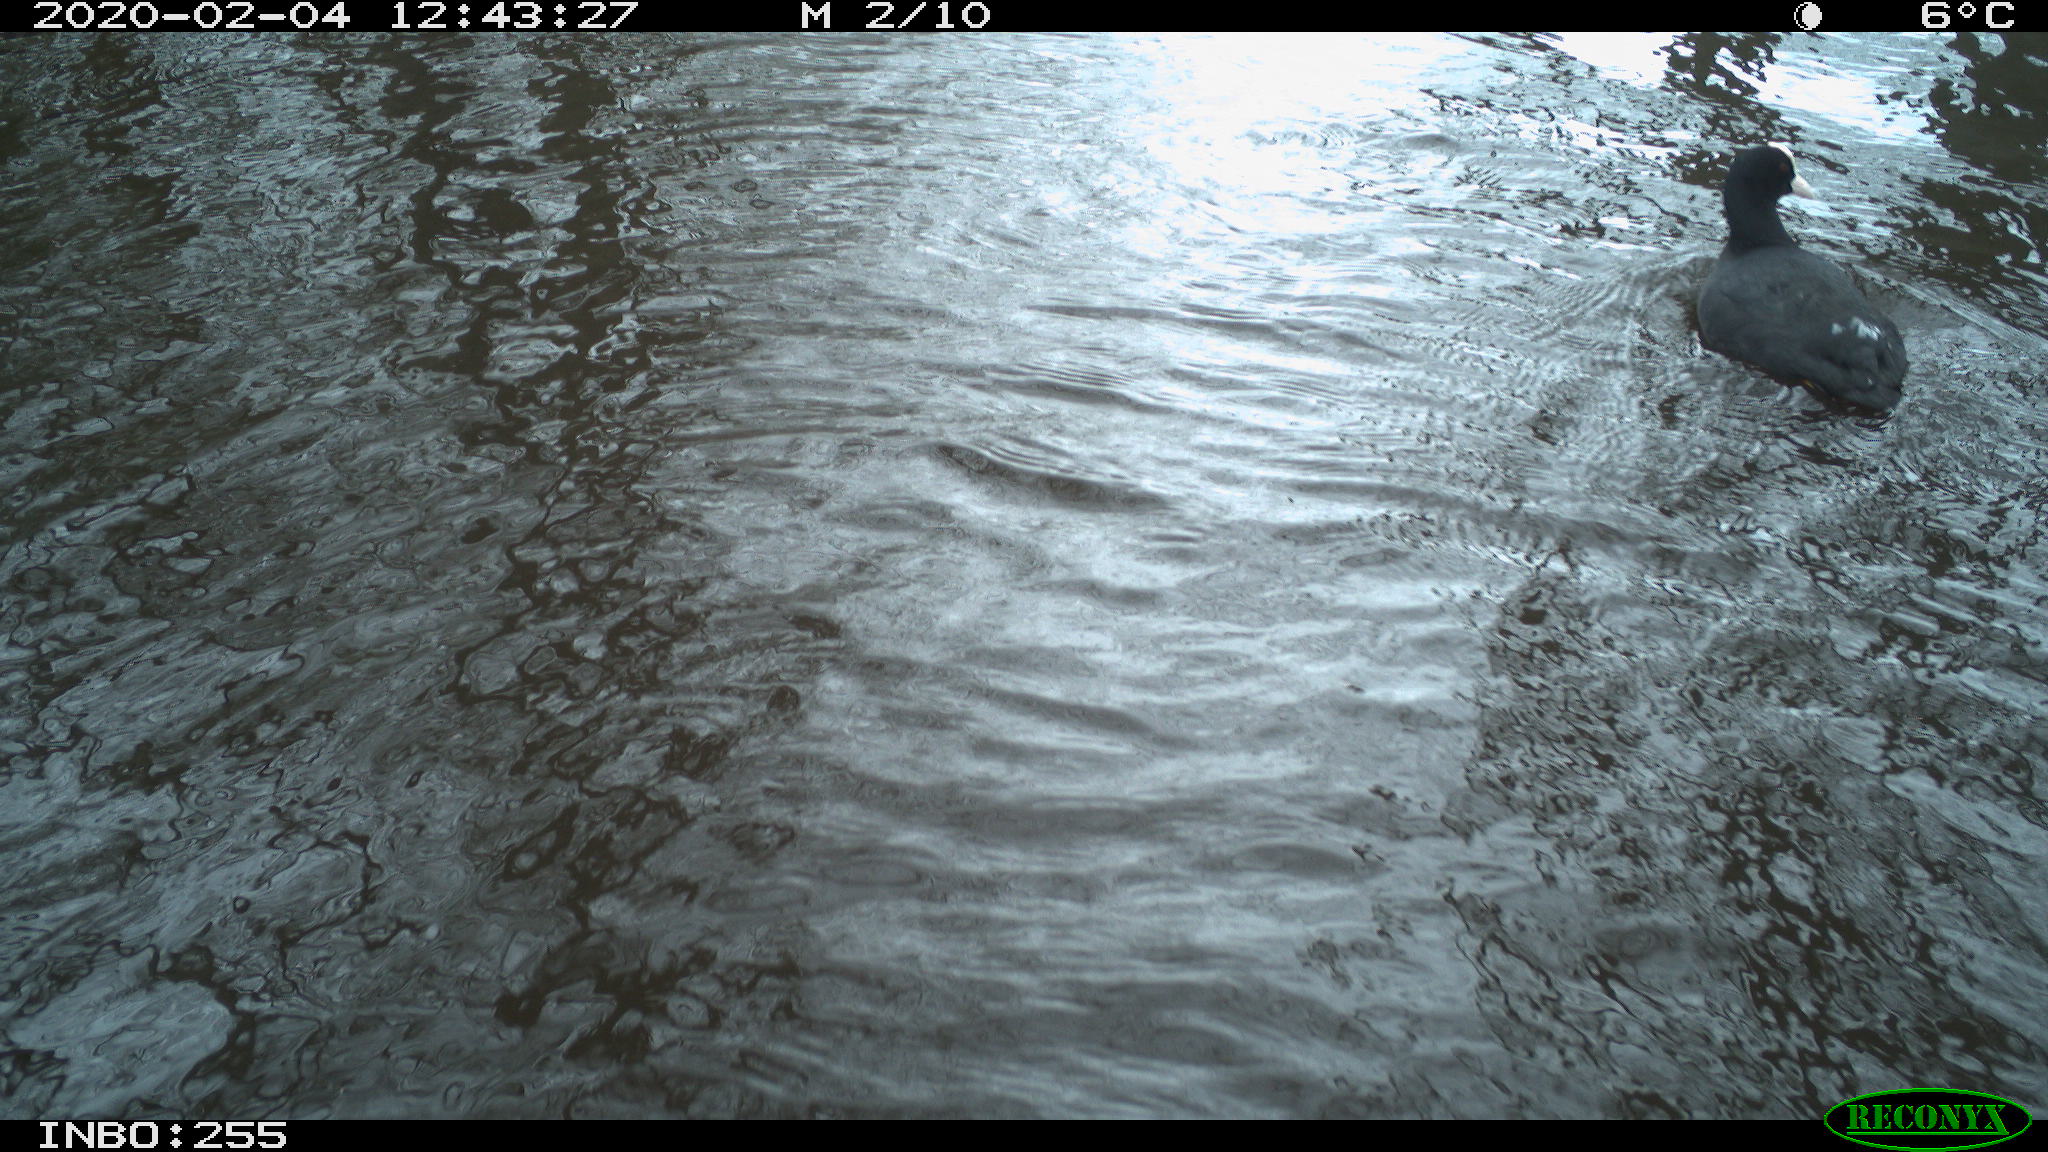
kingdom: Animalia
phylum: Chordata
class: Aves
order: Gruiformes
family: Rallidae
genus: Fulica
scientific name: Fulica atra
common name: Eurasian coot
